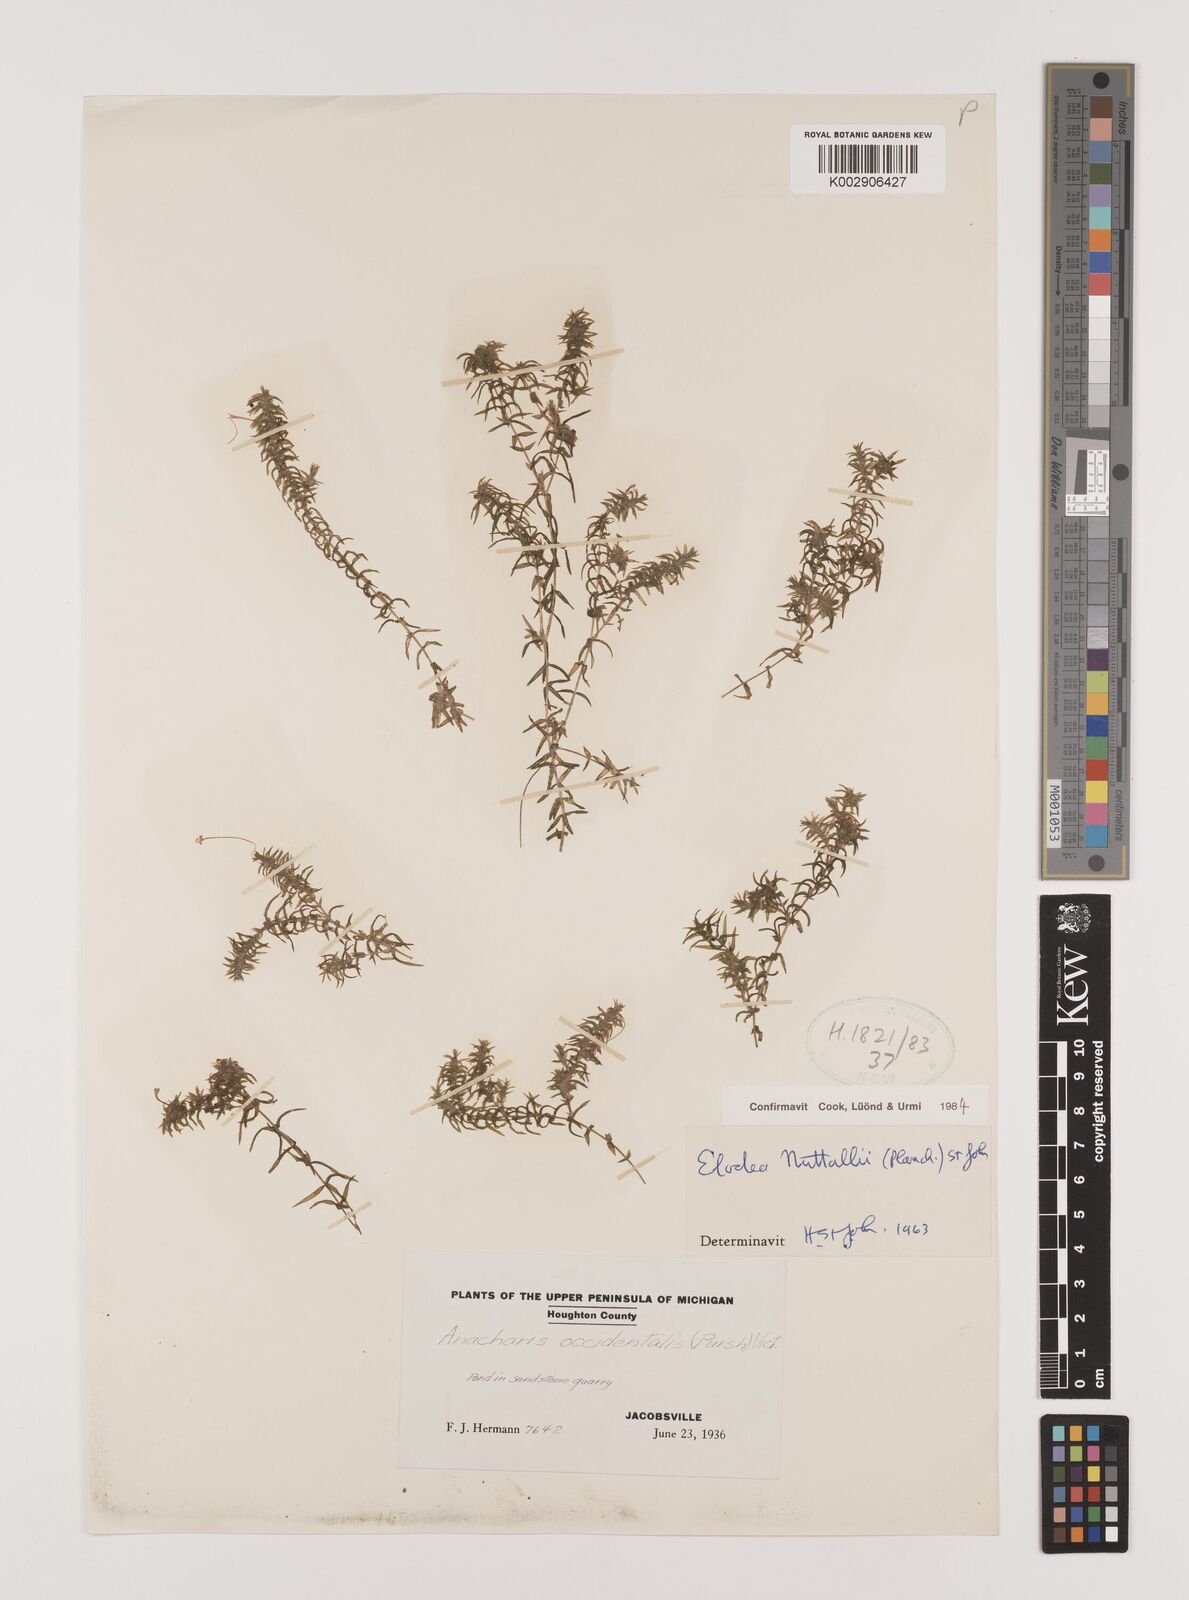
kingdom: Plantae
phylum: Tracheophyta
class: Liliopsida
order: Alismatales
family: Hydrocharitaceae
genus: Elodea
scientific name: Elodea nuttallii
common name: Nuttall's waterweed
